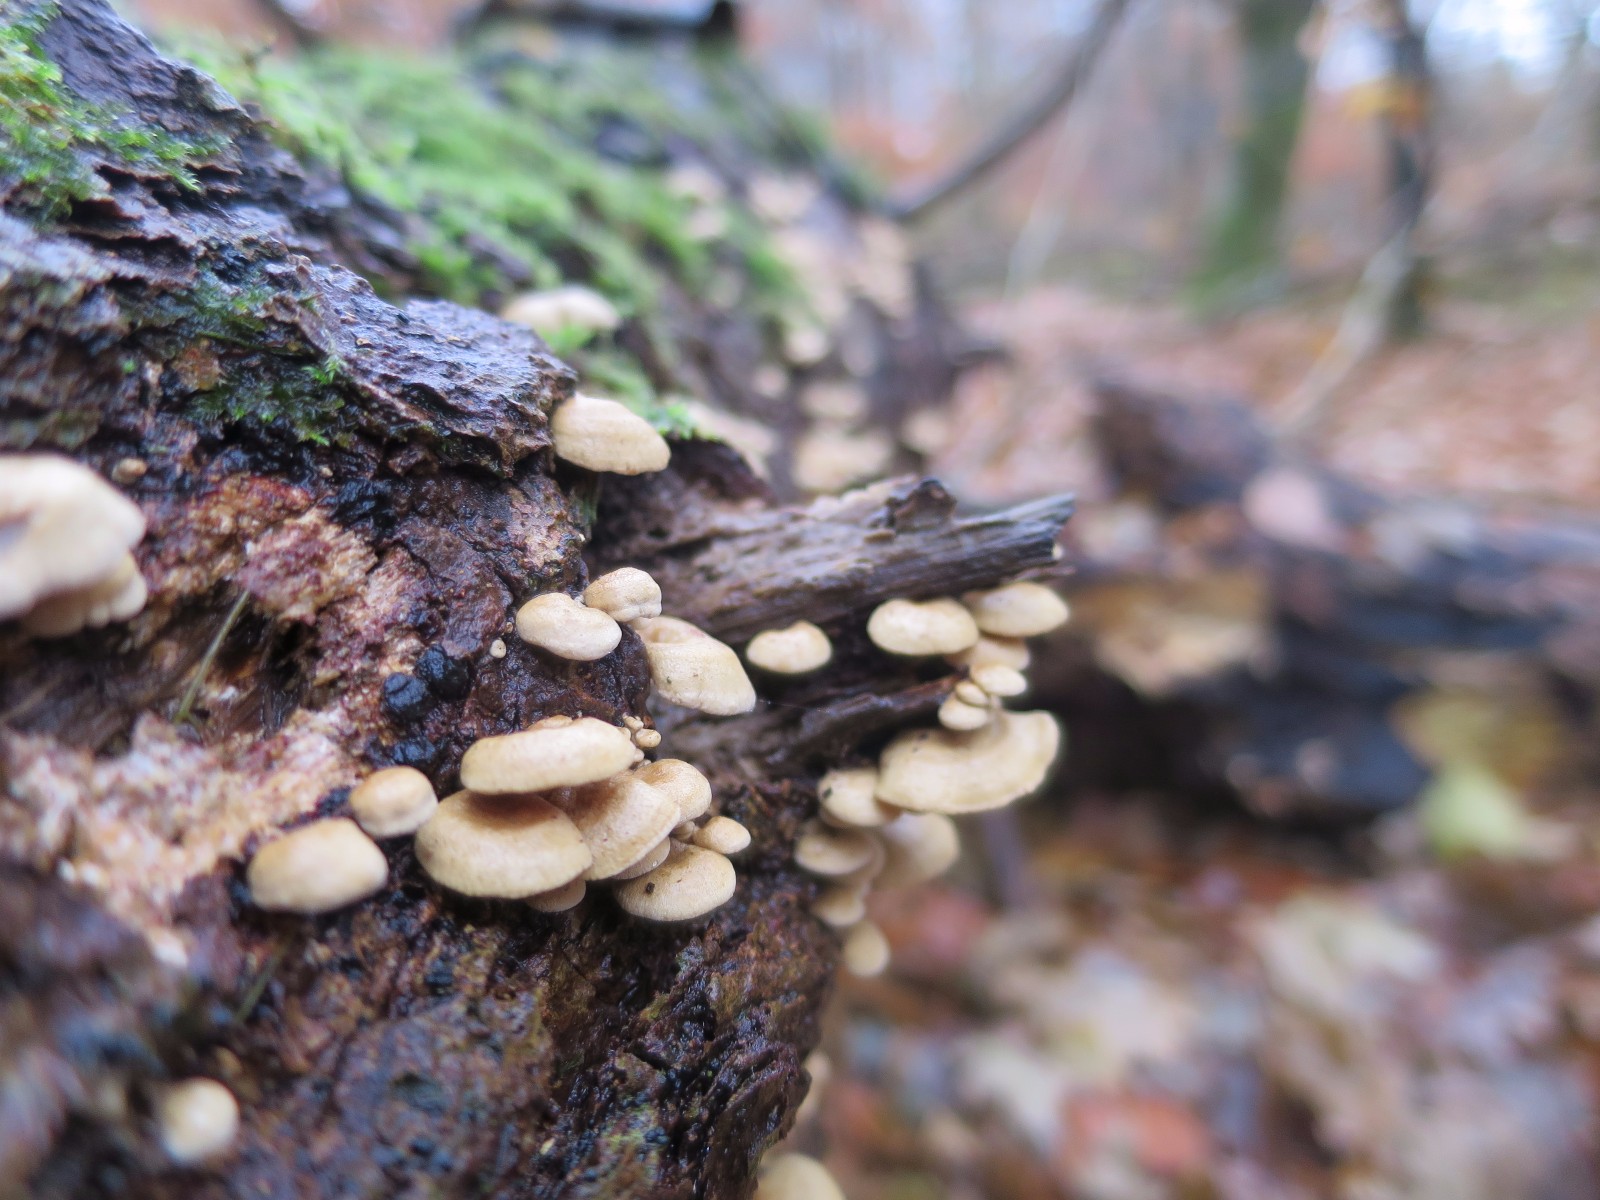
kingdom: Fungi
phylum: Basidiomycota
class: Agaricomycetes
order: Agaricales
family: Mycenaceae
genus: Panellus
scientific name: Panellus stipticus
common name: kliddet epaulethat
